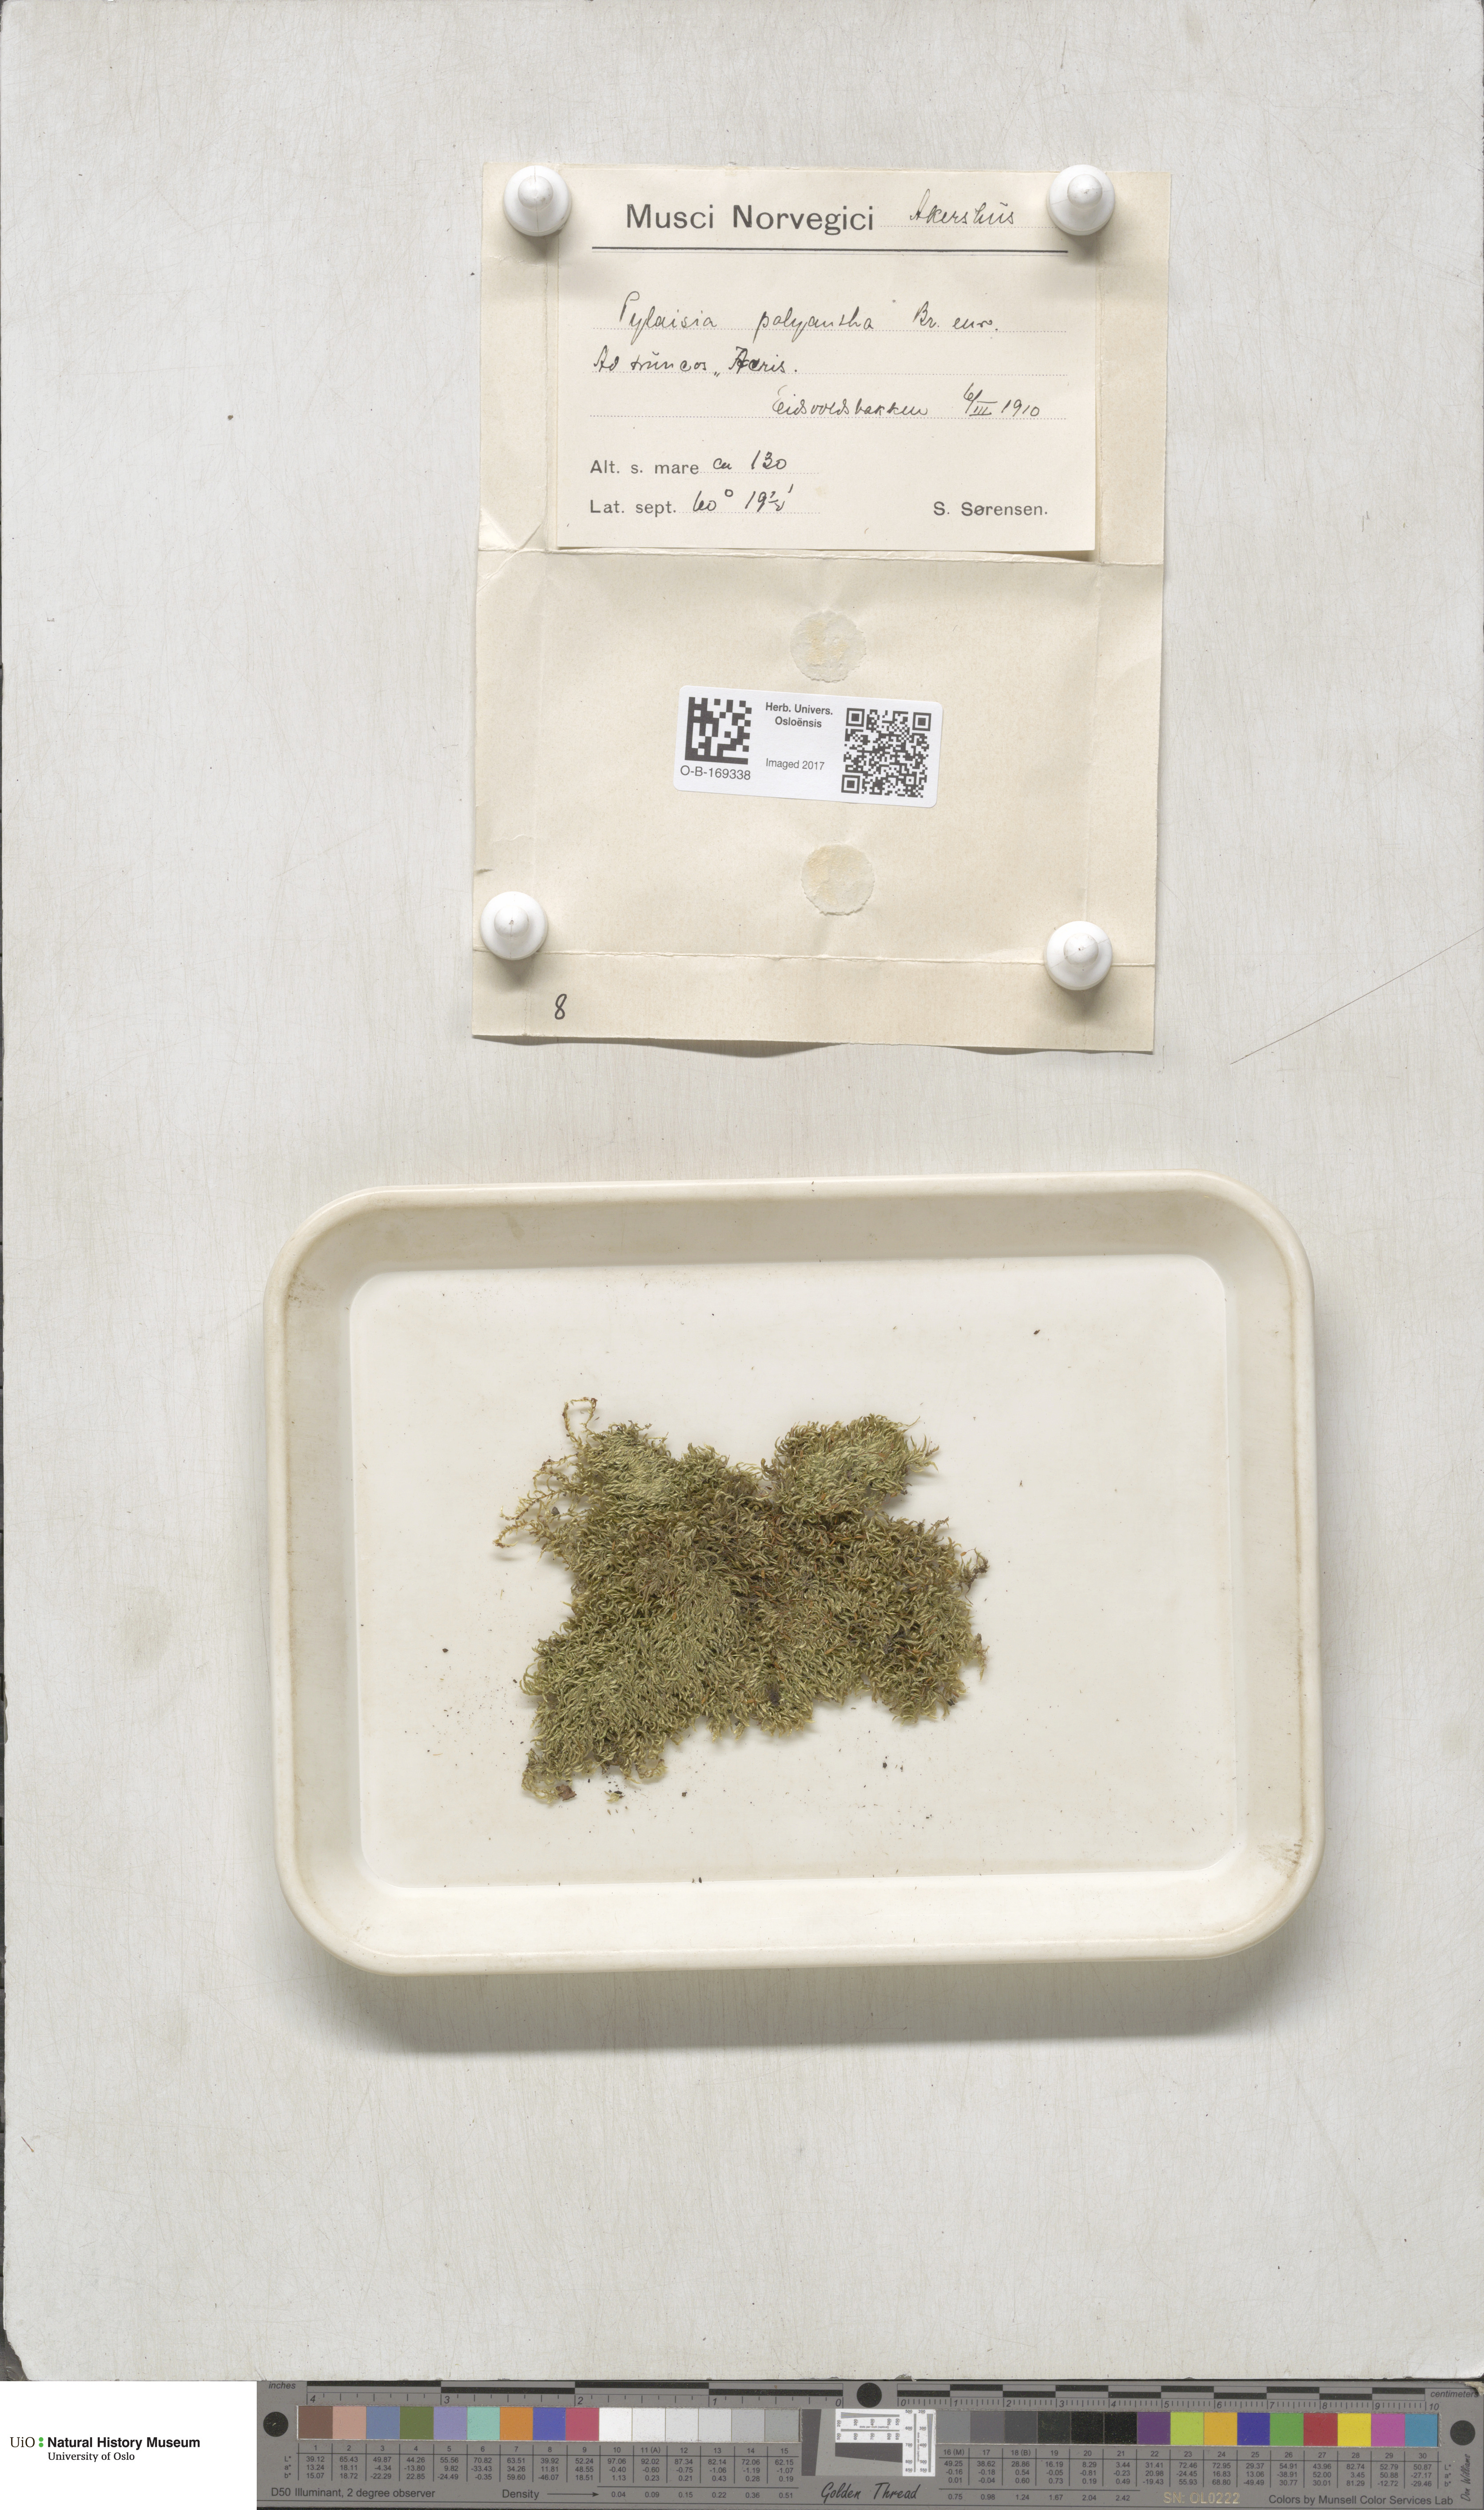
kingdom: Plantae
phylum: Bryophyta
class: Bryopsida
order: Hypnales
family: Pylaisiaceae
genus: Pylaisia
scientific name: Pylaisia polyantha
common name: Many-flowered leskea
